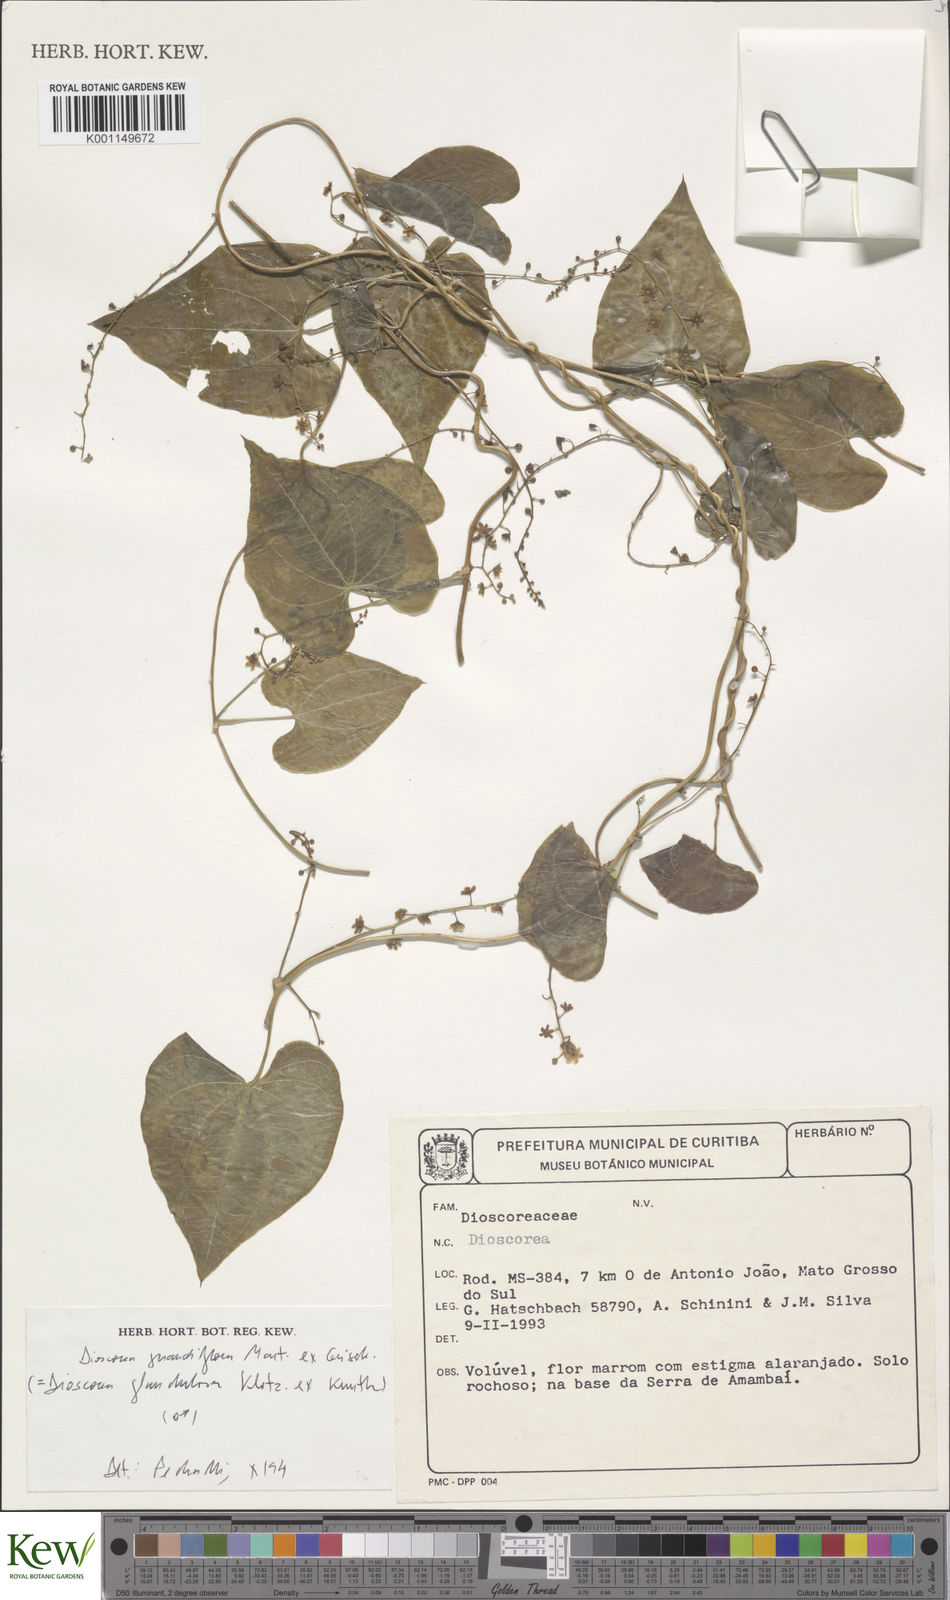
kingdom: Plantae
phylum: Tracheophyta
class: Liliopsida
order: Dioscoreales
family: Dioscoreaceae
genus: Dioscorea
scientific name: Dioscorea glandulosa
